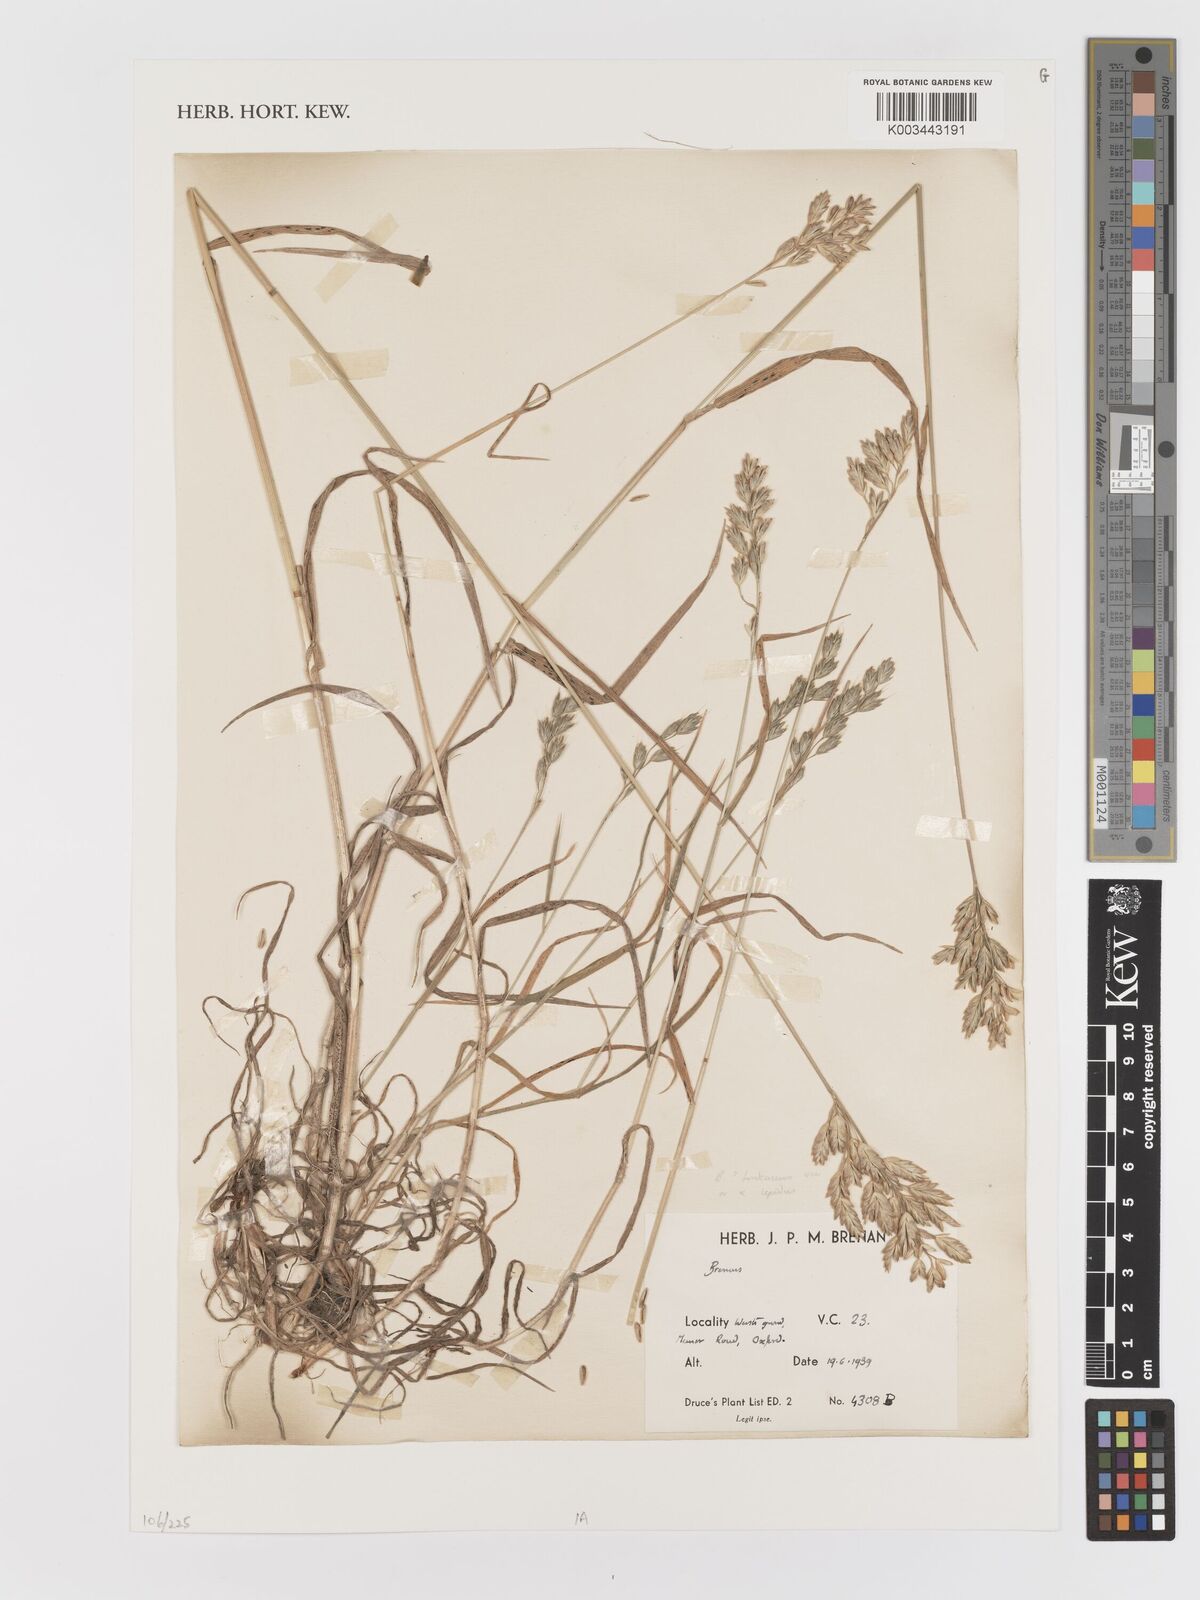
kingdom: Plantae
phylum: Tracheophyta
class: Liliopsida
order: Poales
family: Poaceae
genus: Bromus
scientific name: Bromus
